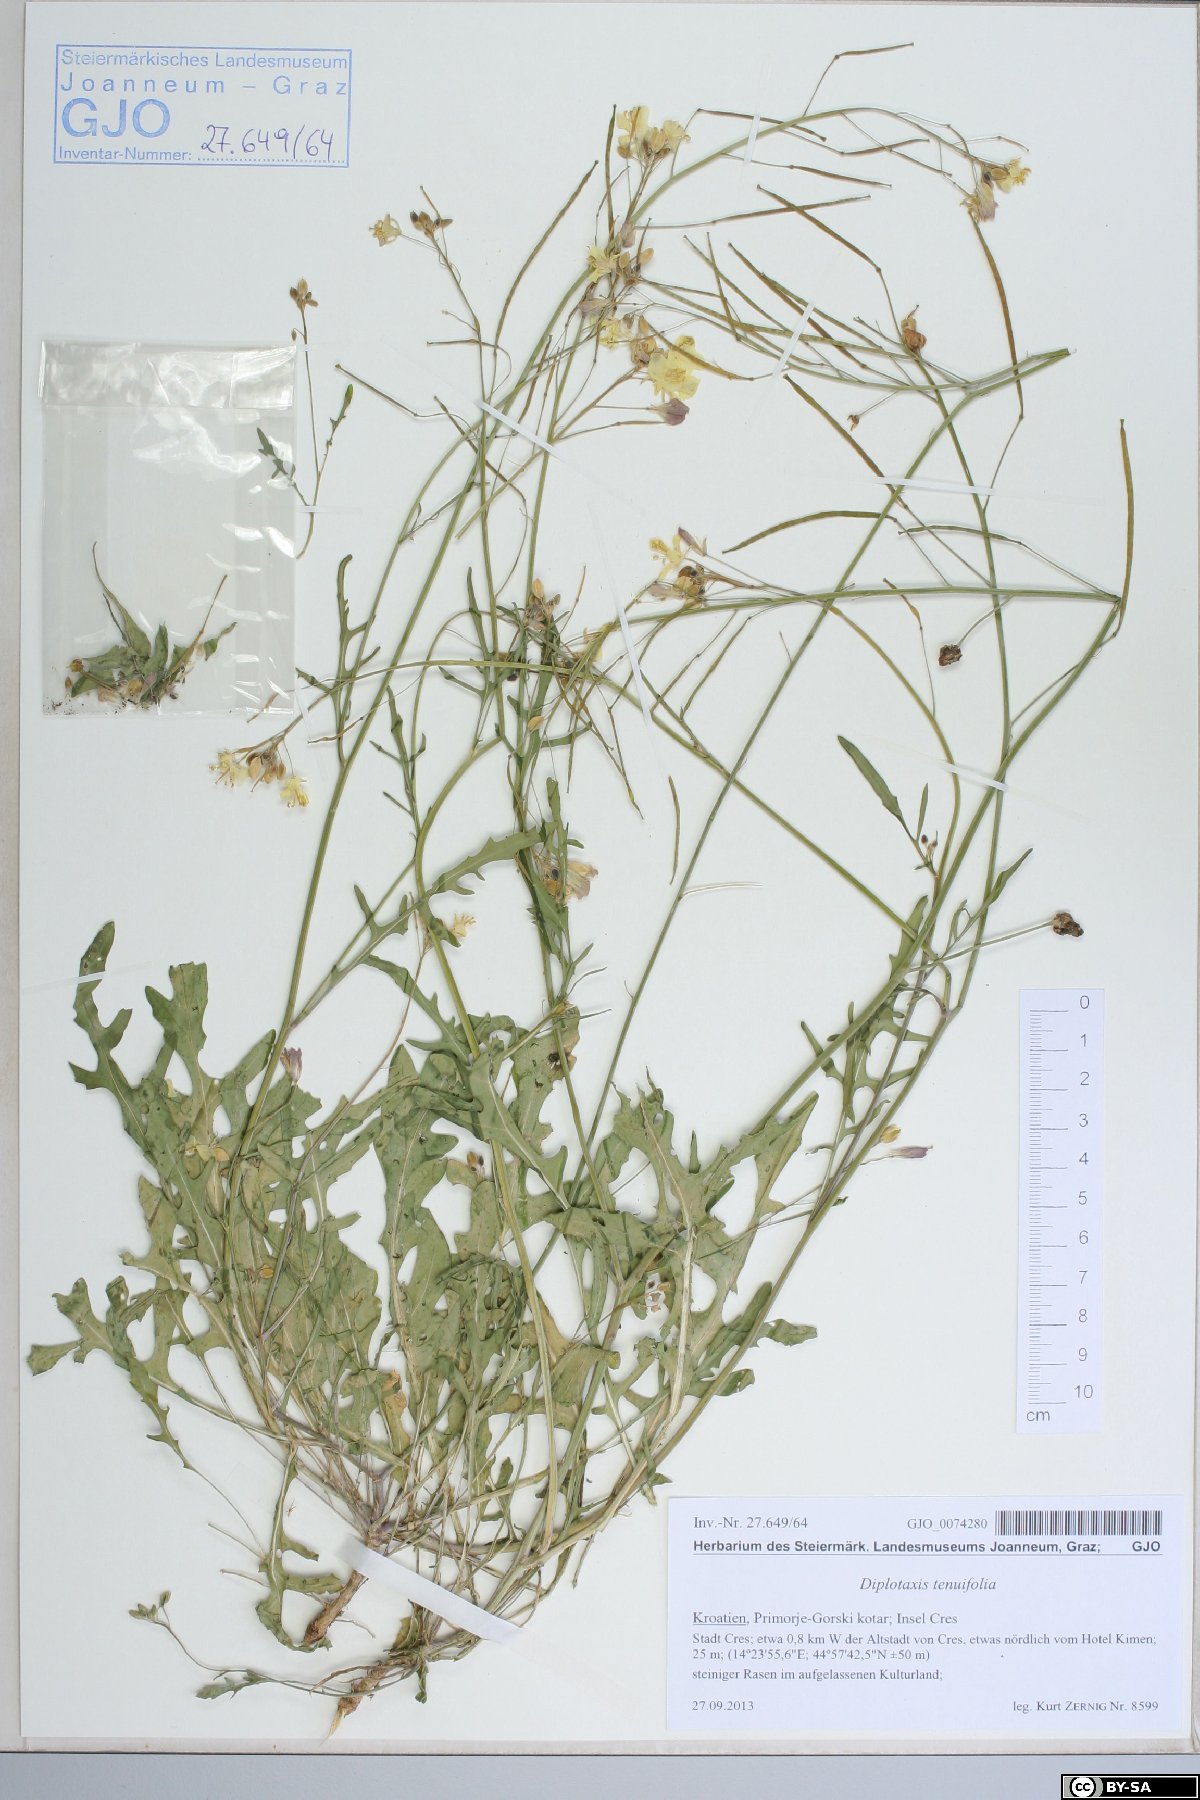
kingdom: Plantae
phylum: Tracheophyta
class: Magnoliopsida
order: Brassicales
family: Brassicaceae
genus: Diplotaxis
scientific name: Diplotaxis tenuifolia
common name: Perennial wall-rocket
